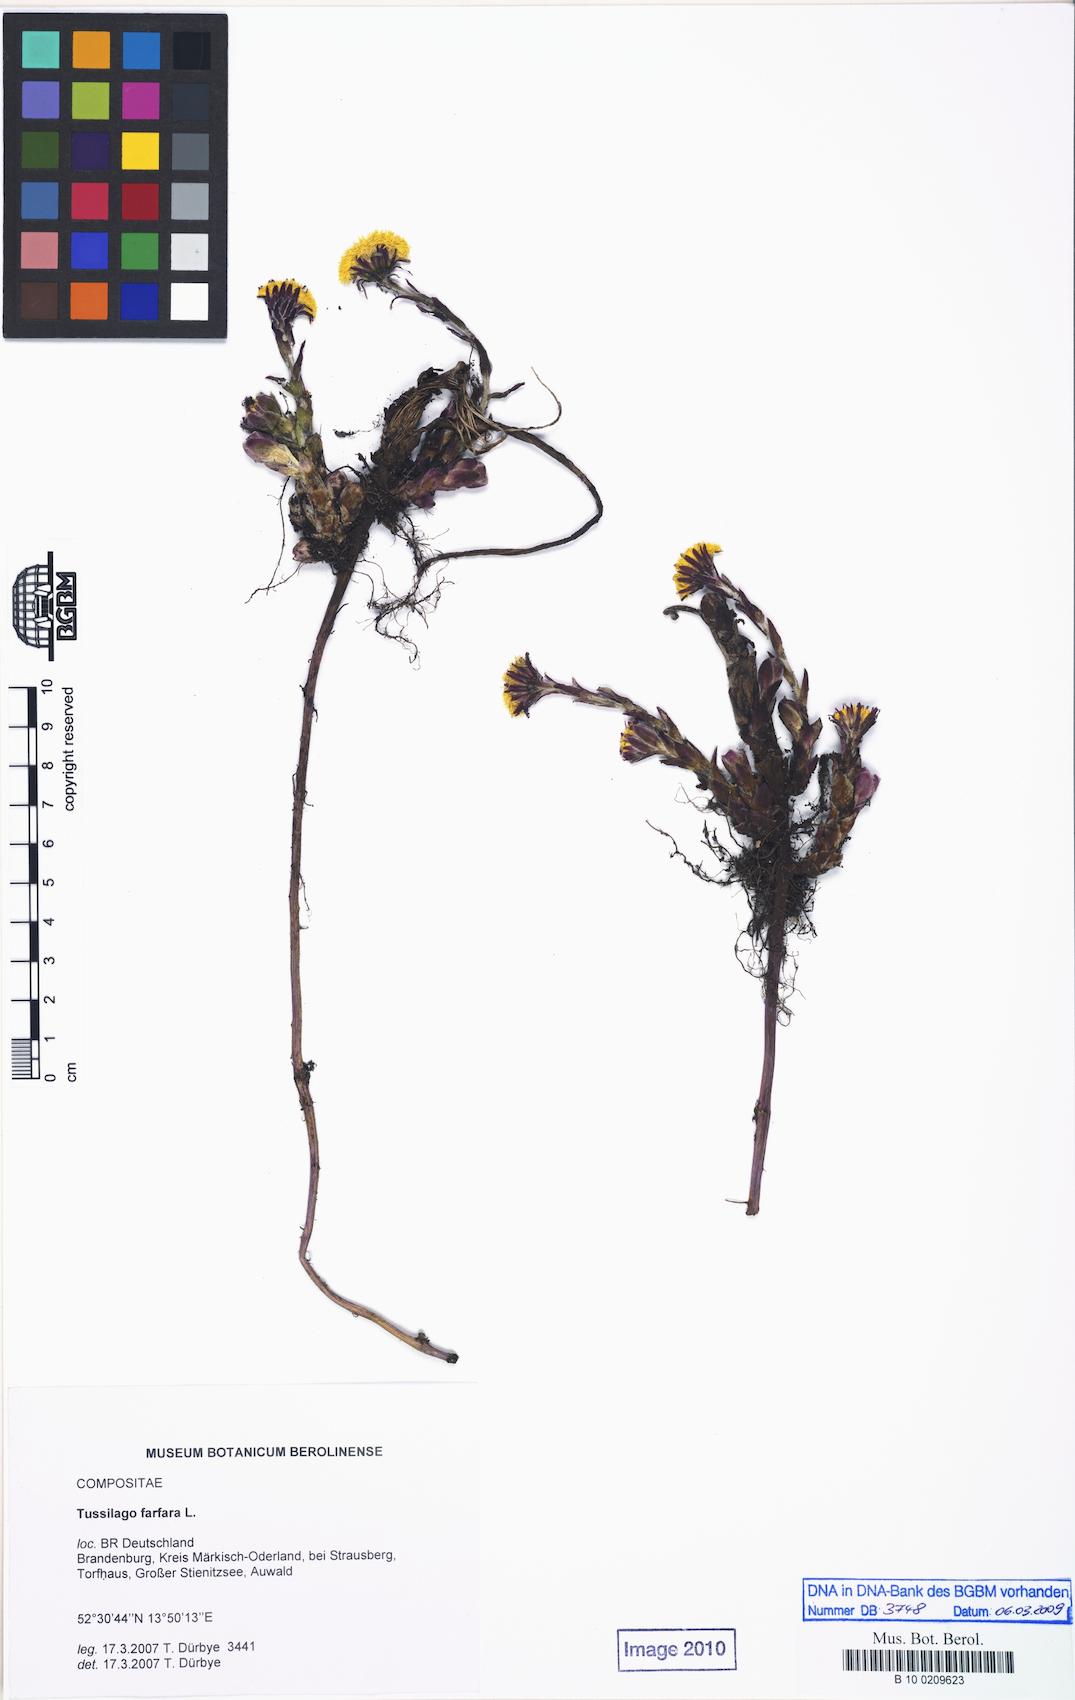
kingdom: Plantae
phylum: Tracheophyta
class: Magnoliopsida
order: Asterales
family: Asteraceae
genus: Tussilago
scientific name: Tussilago farfara
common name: Coltsfoot
